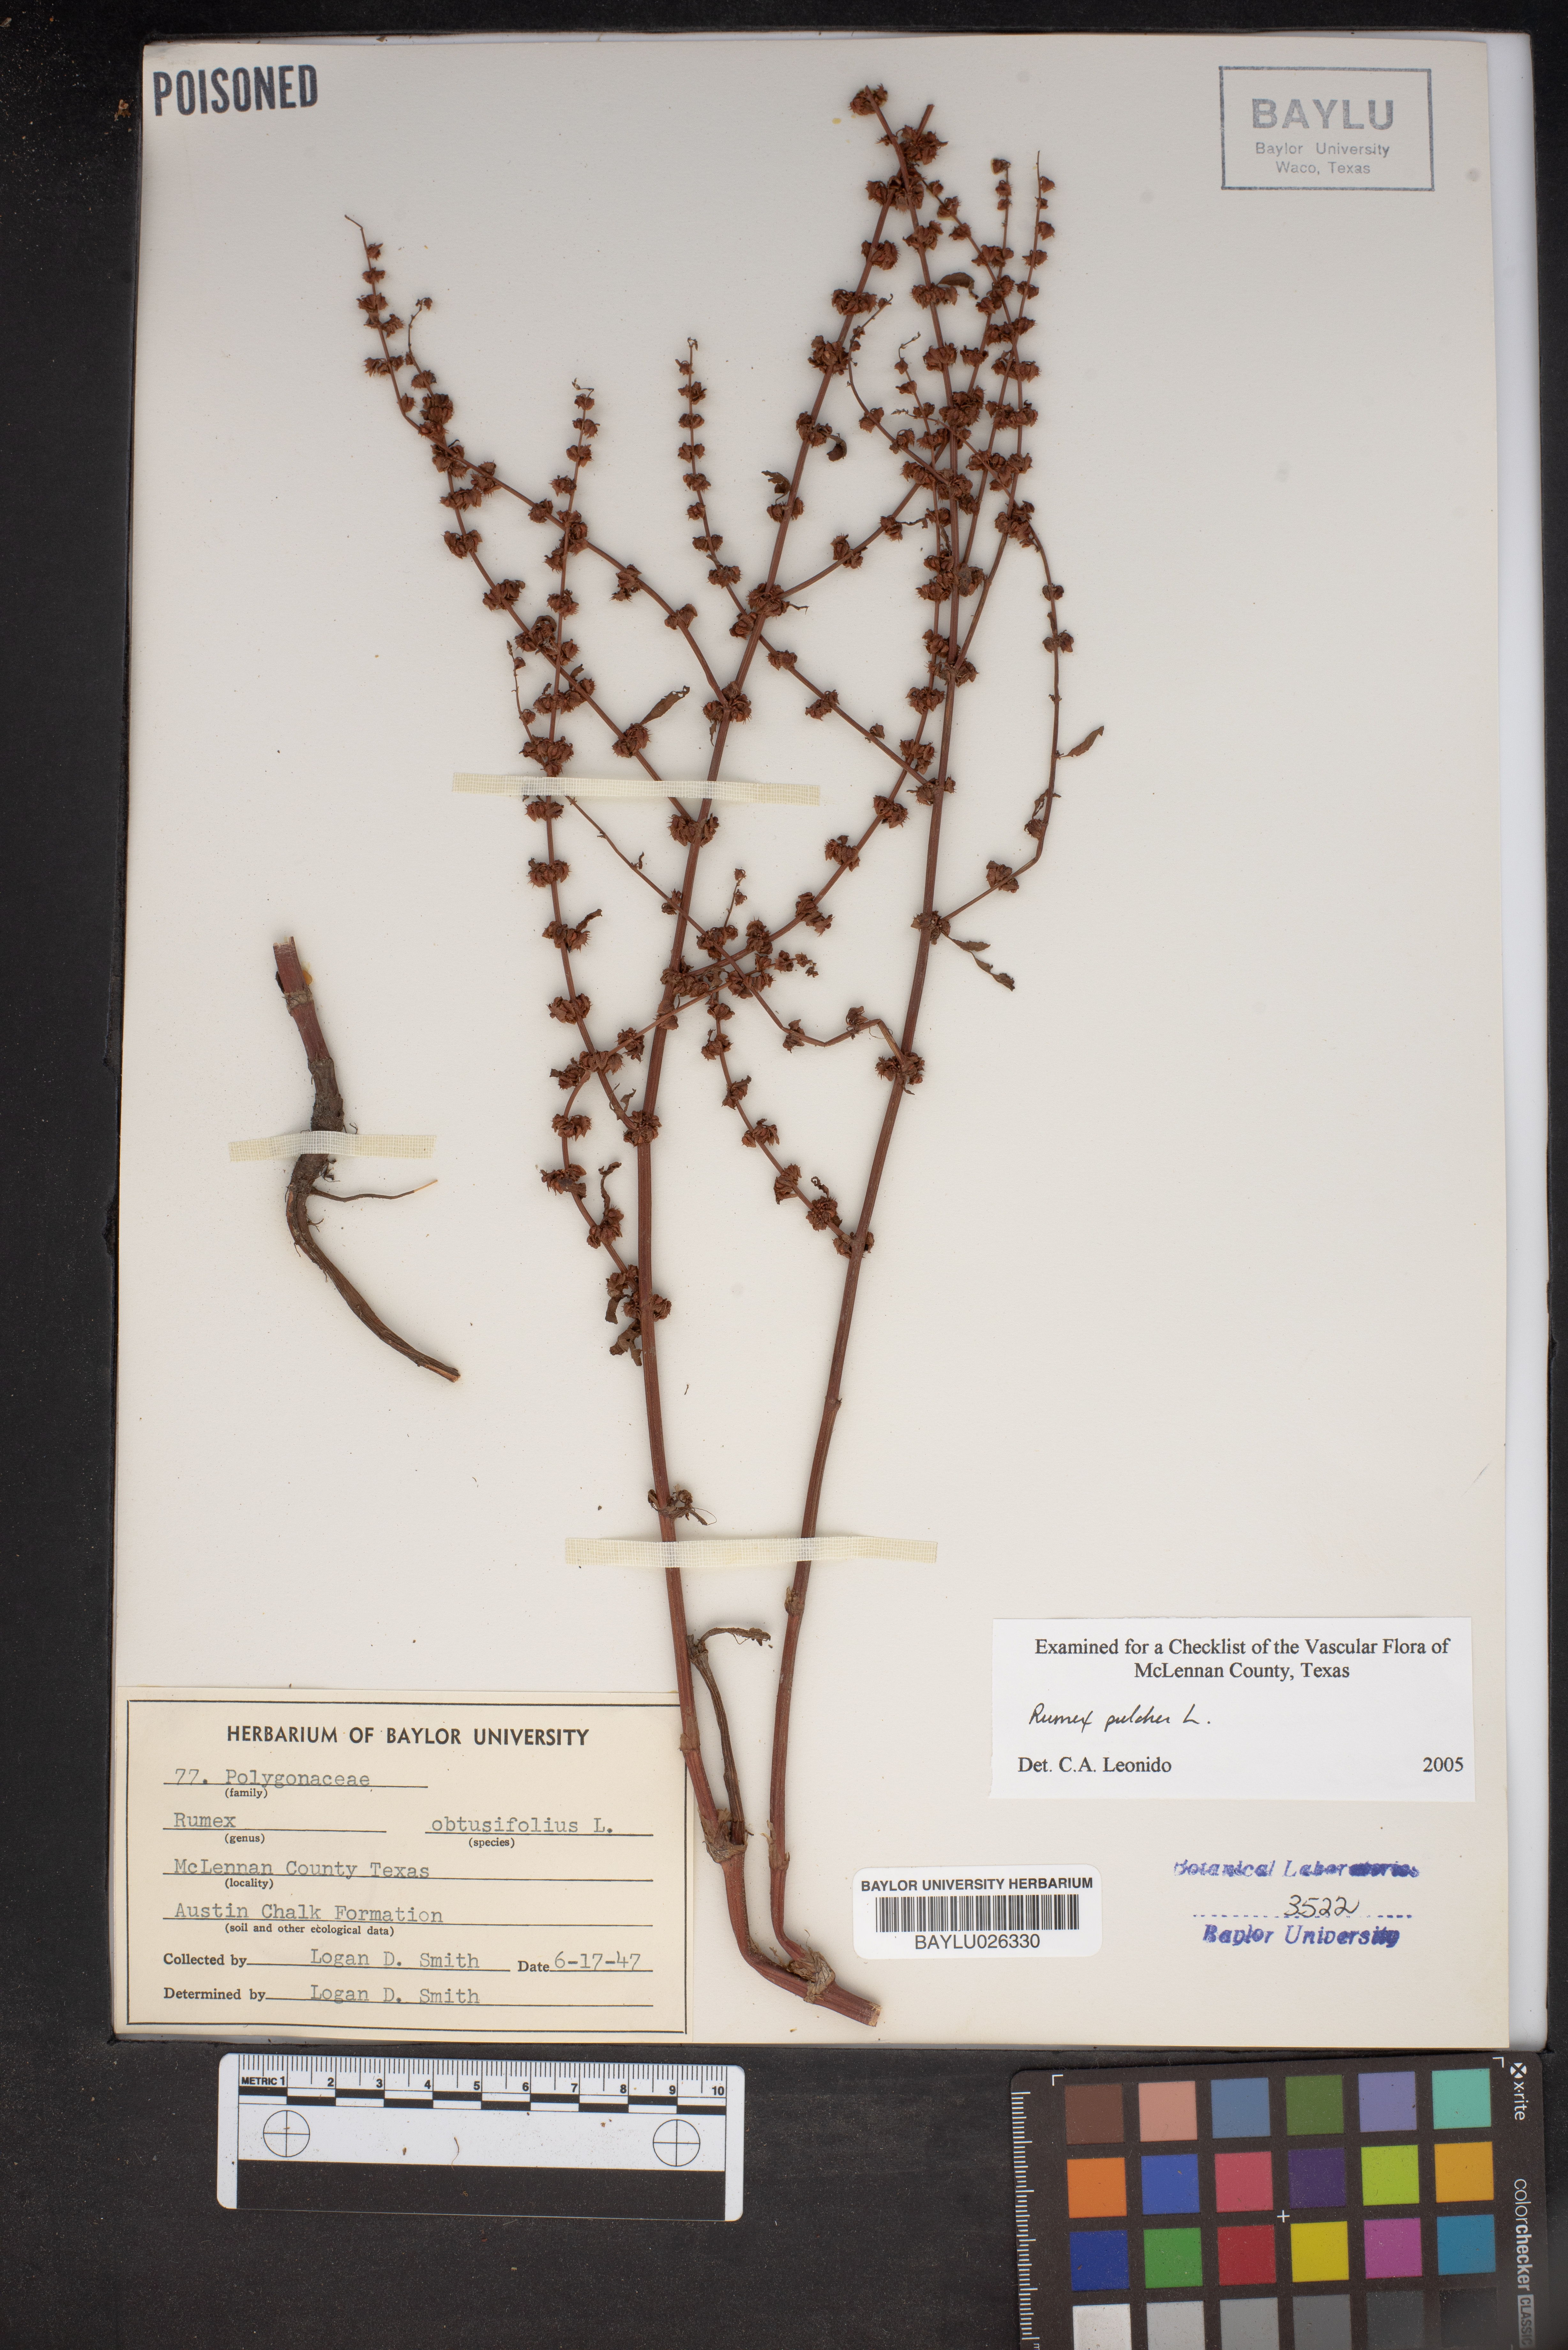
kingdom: Plantae
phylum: Tracheophyta
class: Magnoliopsida
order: Caryophyllales
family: Polygonaceae
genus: Rumex
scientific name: Rumex pulcher
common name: Fiddle dock
